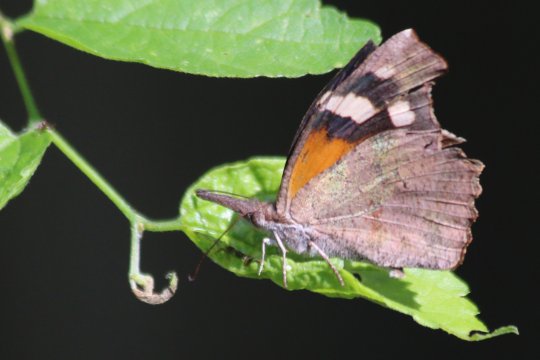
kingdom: Animalia
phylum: Arthropoda
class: Insecta
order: Lepidoptera
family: Nymphalidae
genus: Libytheana
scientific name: Libytheana carinenta
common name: American Snout
